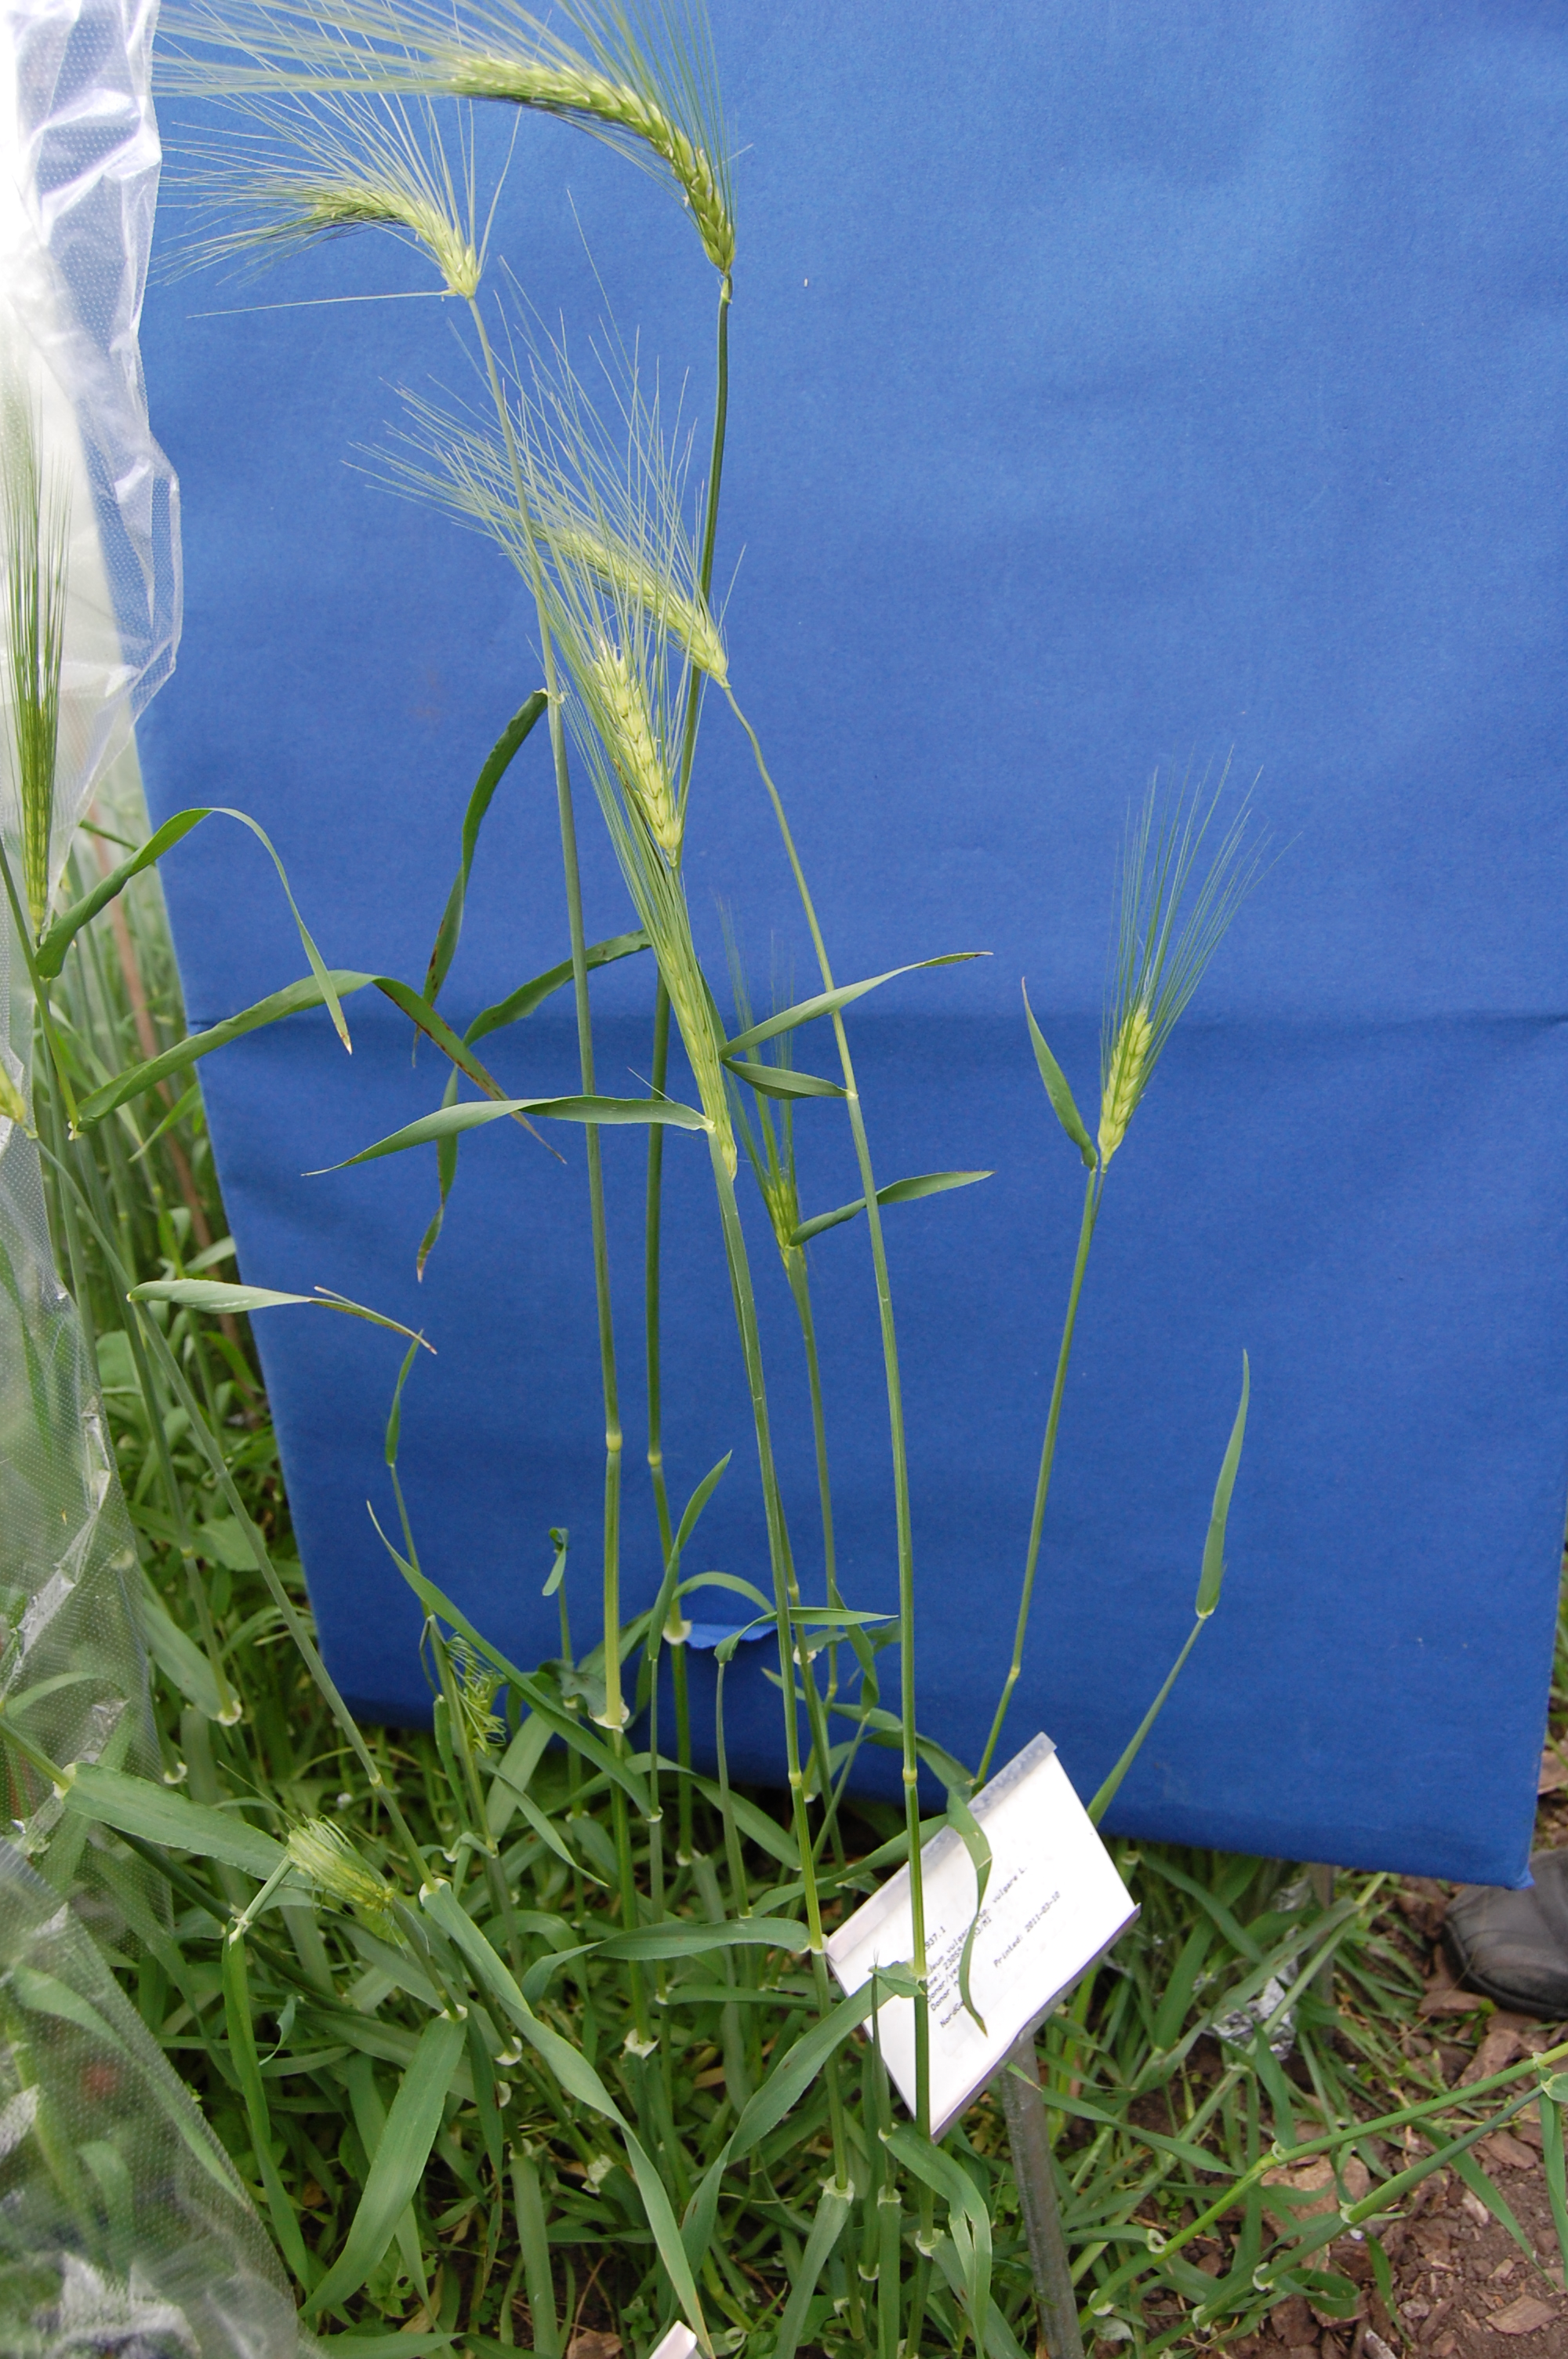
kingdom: Plantae
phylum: Tracheophyta
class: Liliopsida
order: Poales
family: Poaceae
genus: Hordeum
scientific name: Hordeum vulgare
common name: Common barley
